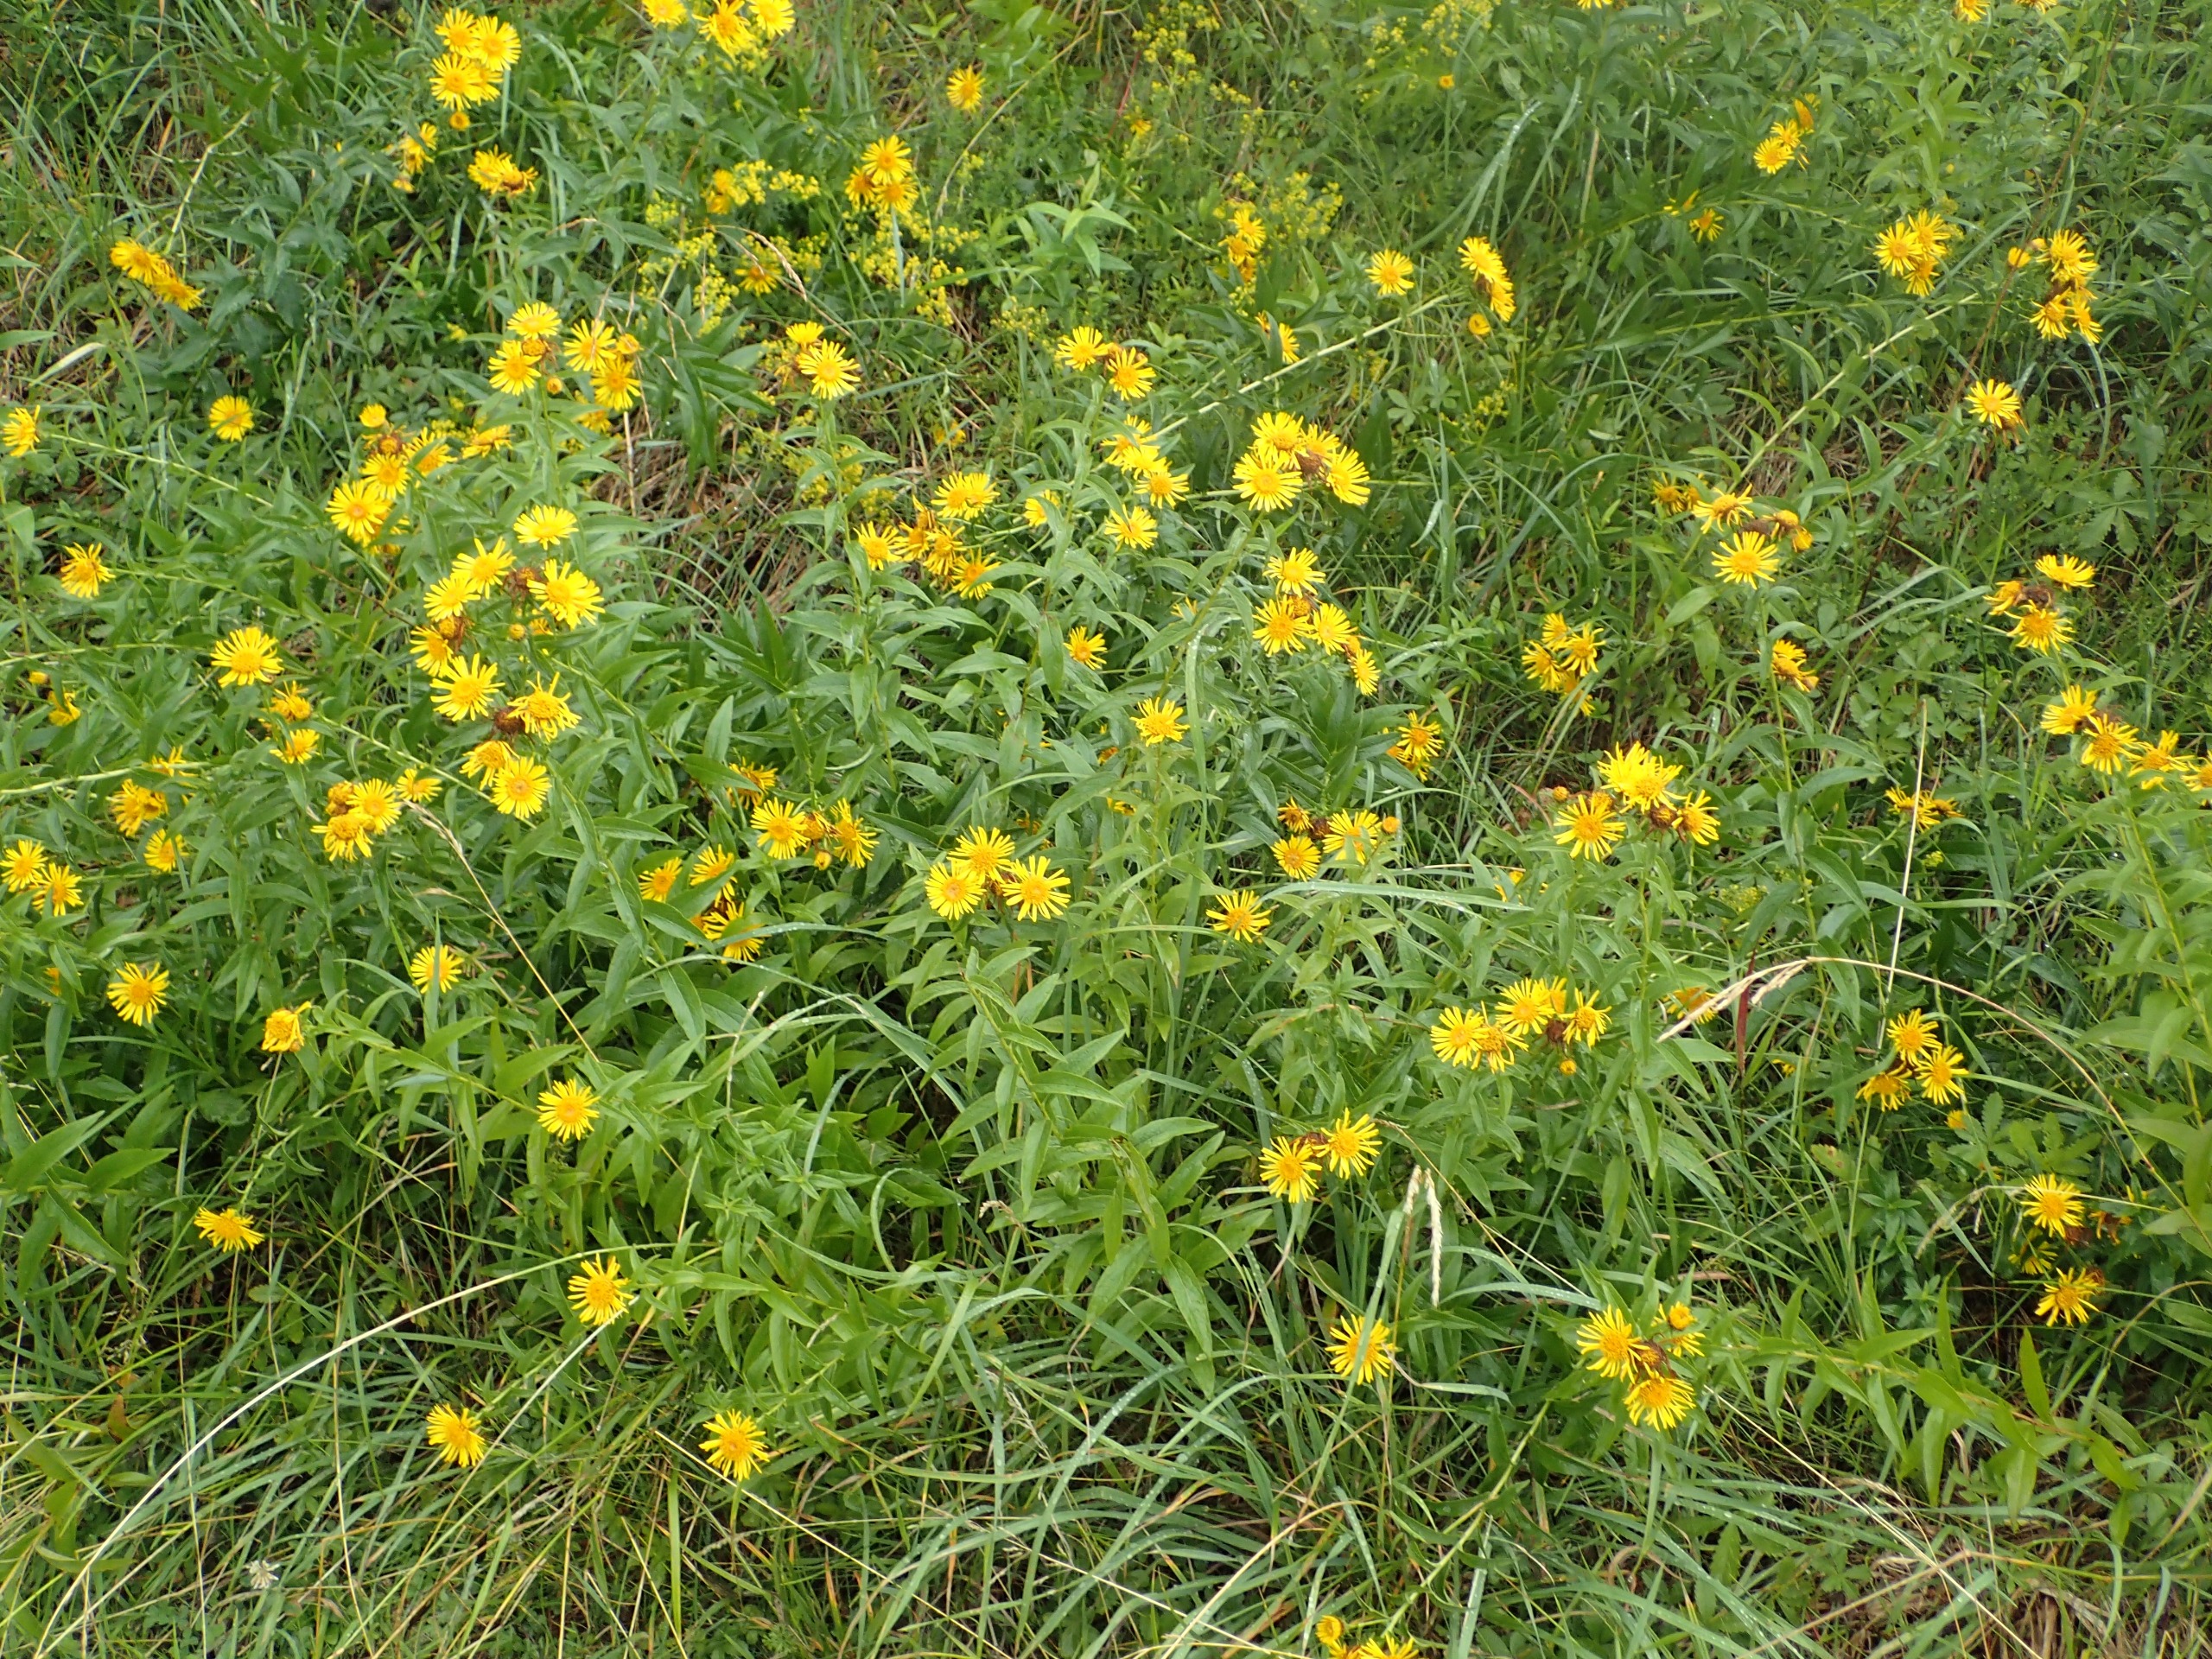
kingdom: Plantae
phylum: Tracheophyta
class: Magnoliopsida
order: Asterales
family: Asteraceae
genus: Pentanema
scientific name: Pentanema salicinum
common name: Pile-alant
